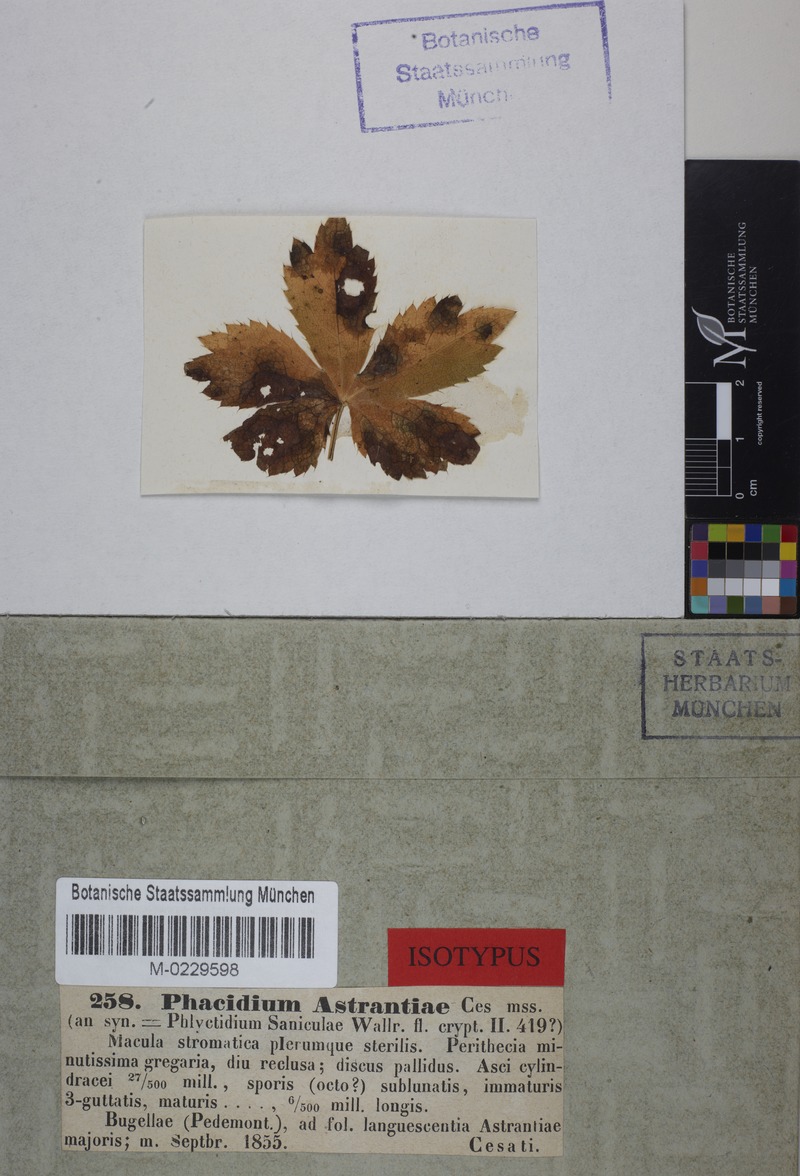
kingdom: Fungi
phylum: Ascomycota
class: Leotiomycetes
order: Helotiales
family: Drepanopezizaceae
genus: Leptotrochila
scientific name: Leptotrochila astrantiae
